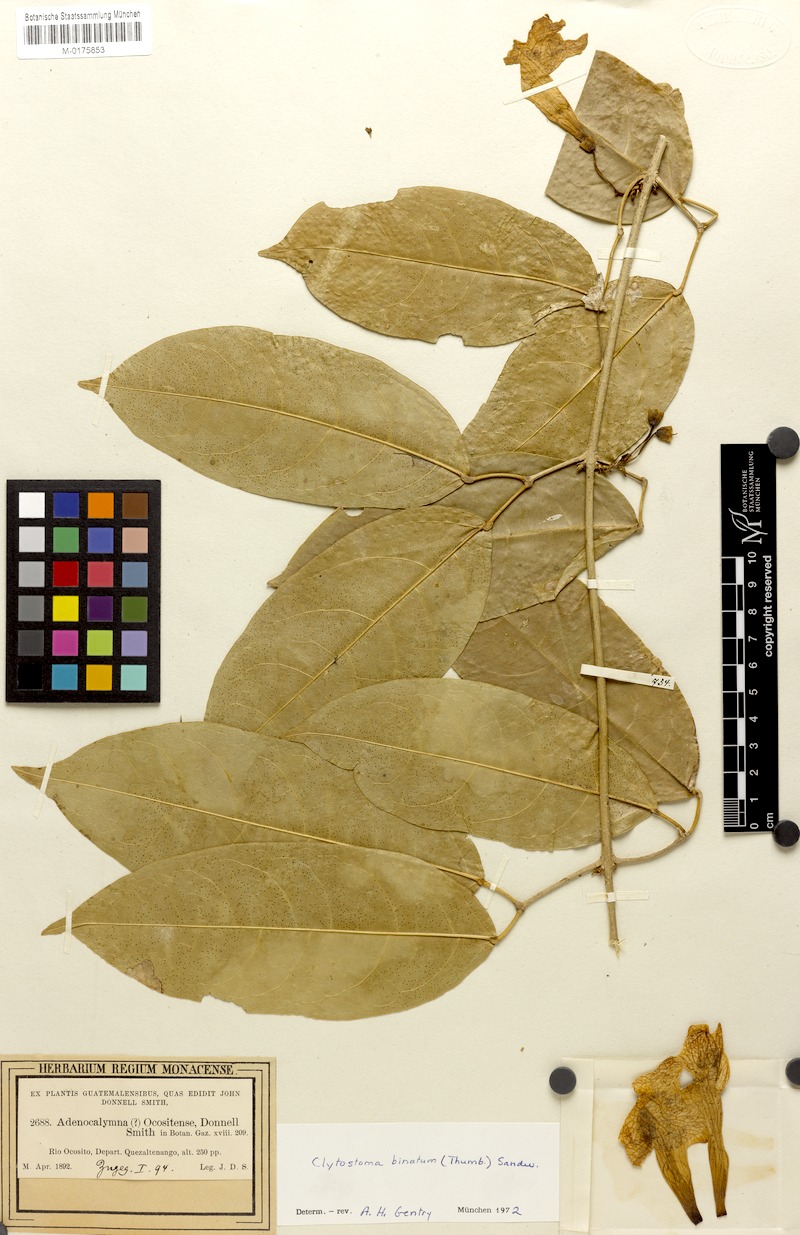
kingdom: Plantae
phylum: Tracheophyta
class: Magnoliopsida
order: Lamiales
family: Bignoniaceae
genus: Bignonia
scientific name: Bignonia binata
